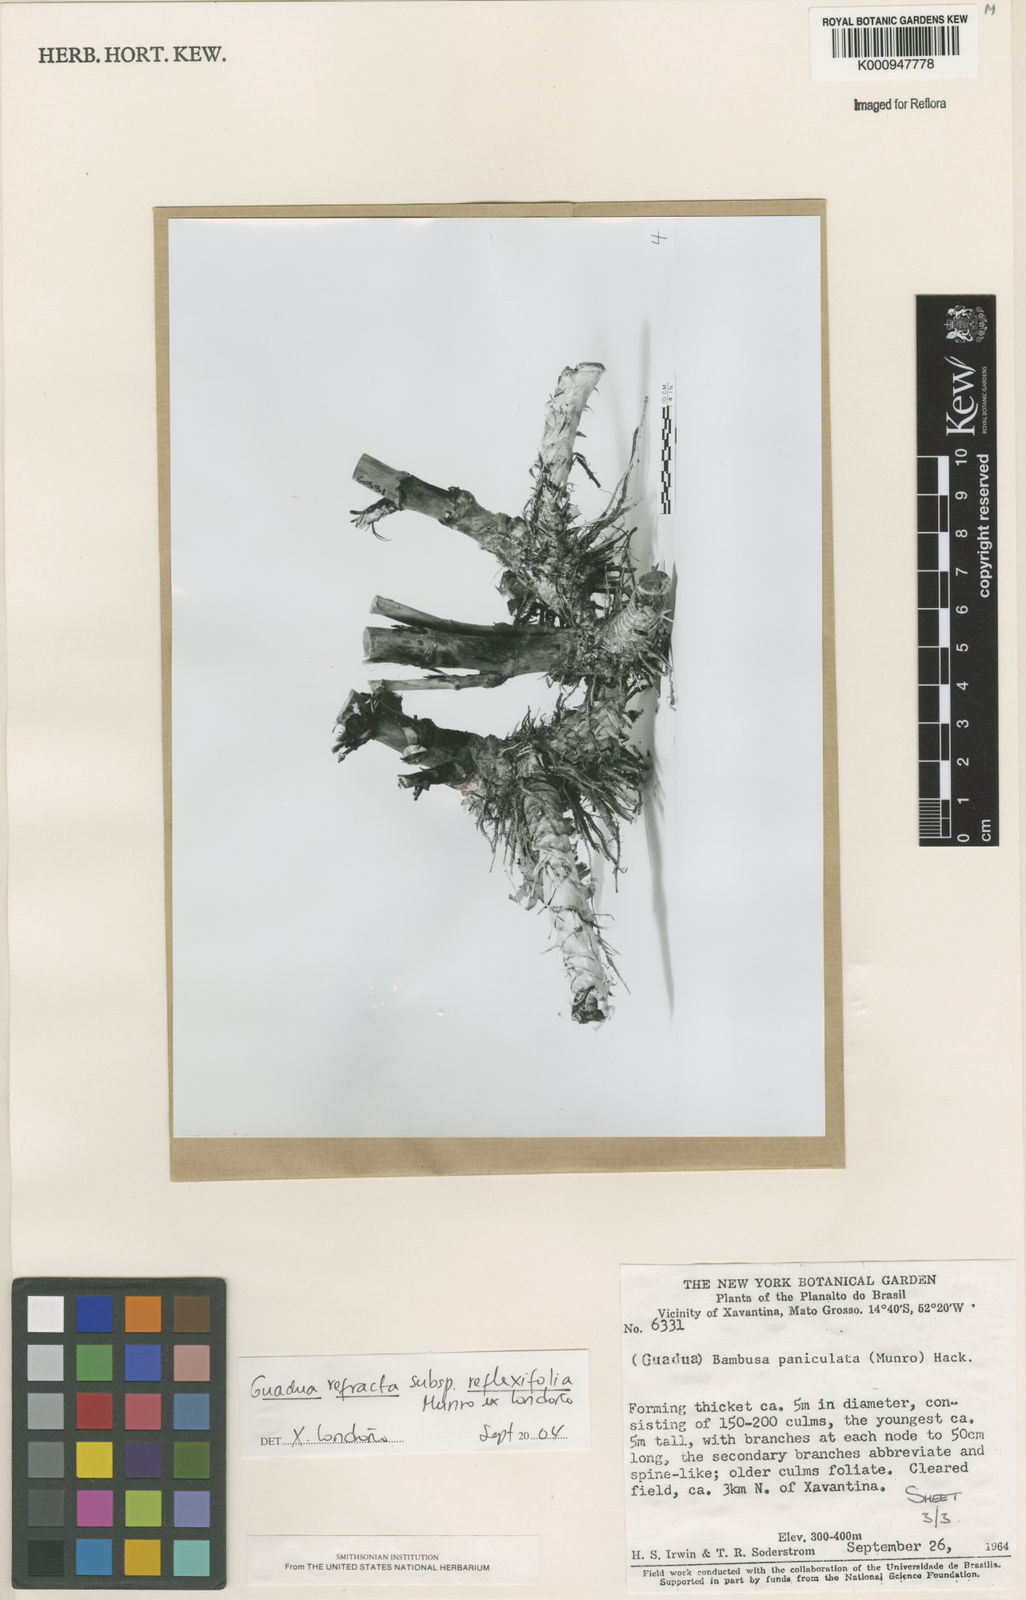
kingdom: Plantae
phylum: Tracheophyta
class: Liliopsida
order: Poales
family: Poaceae
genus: Guadua
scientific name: Guadua
